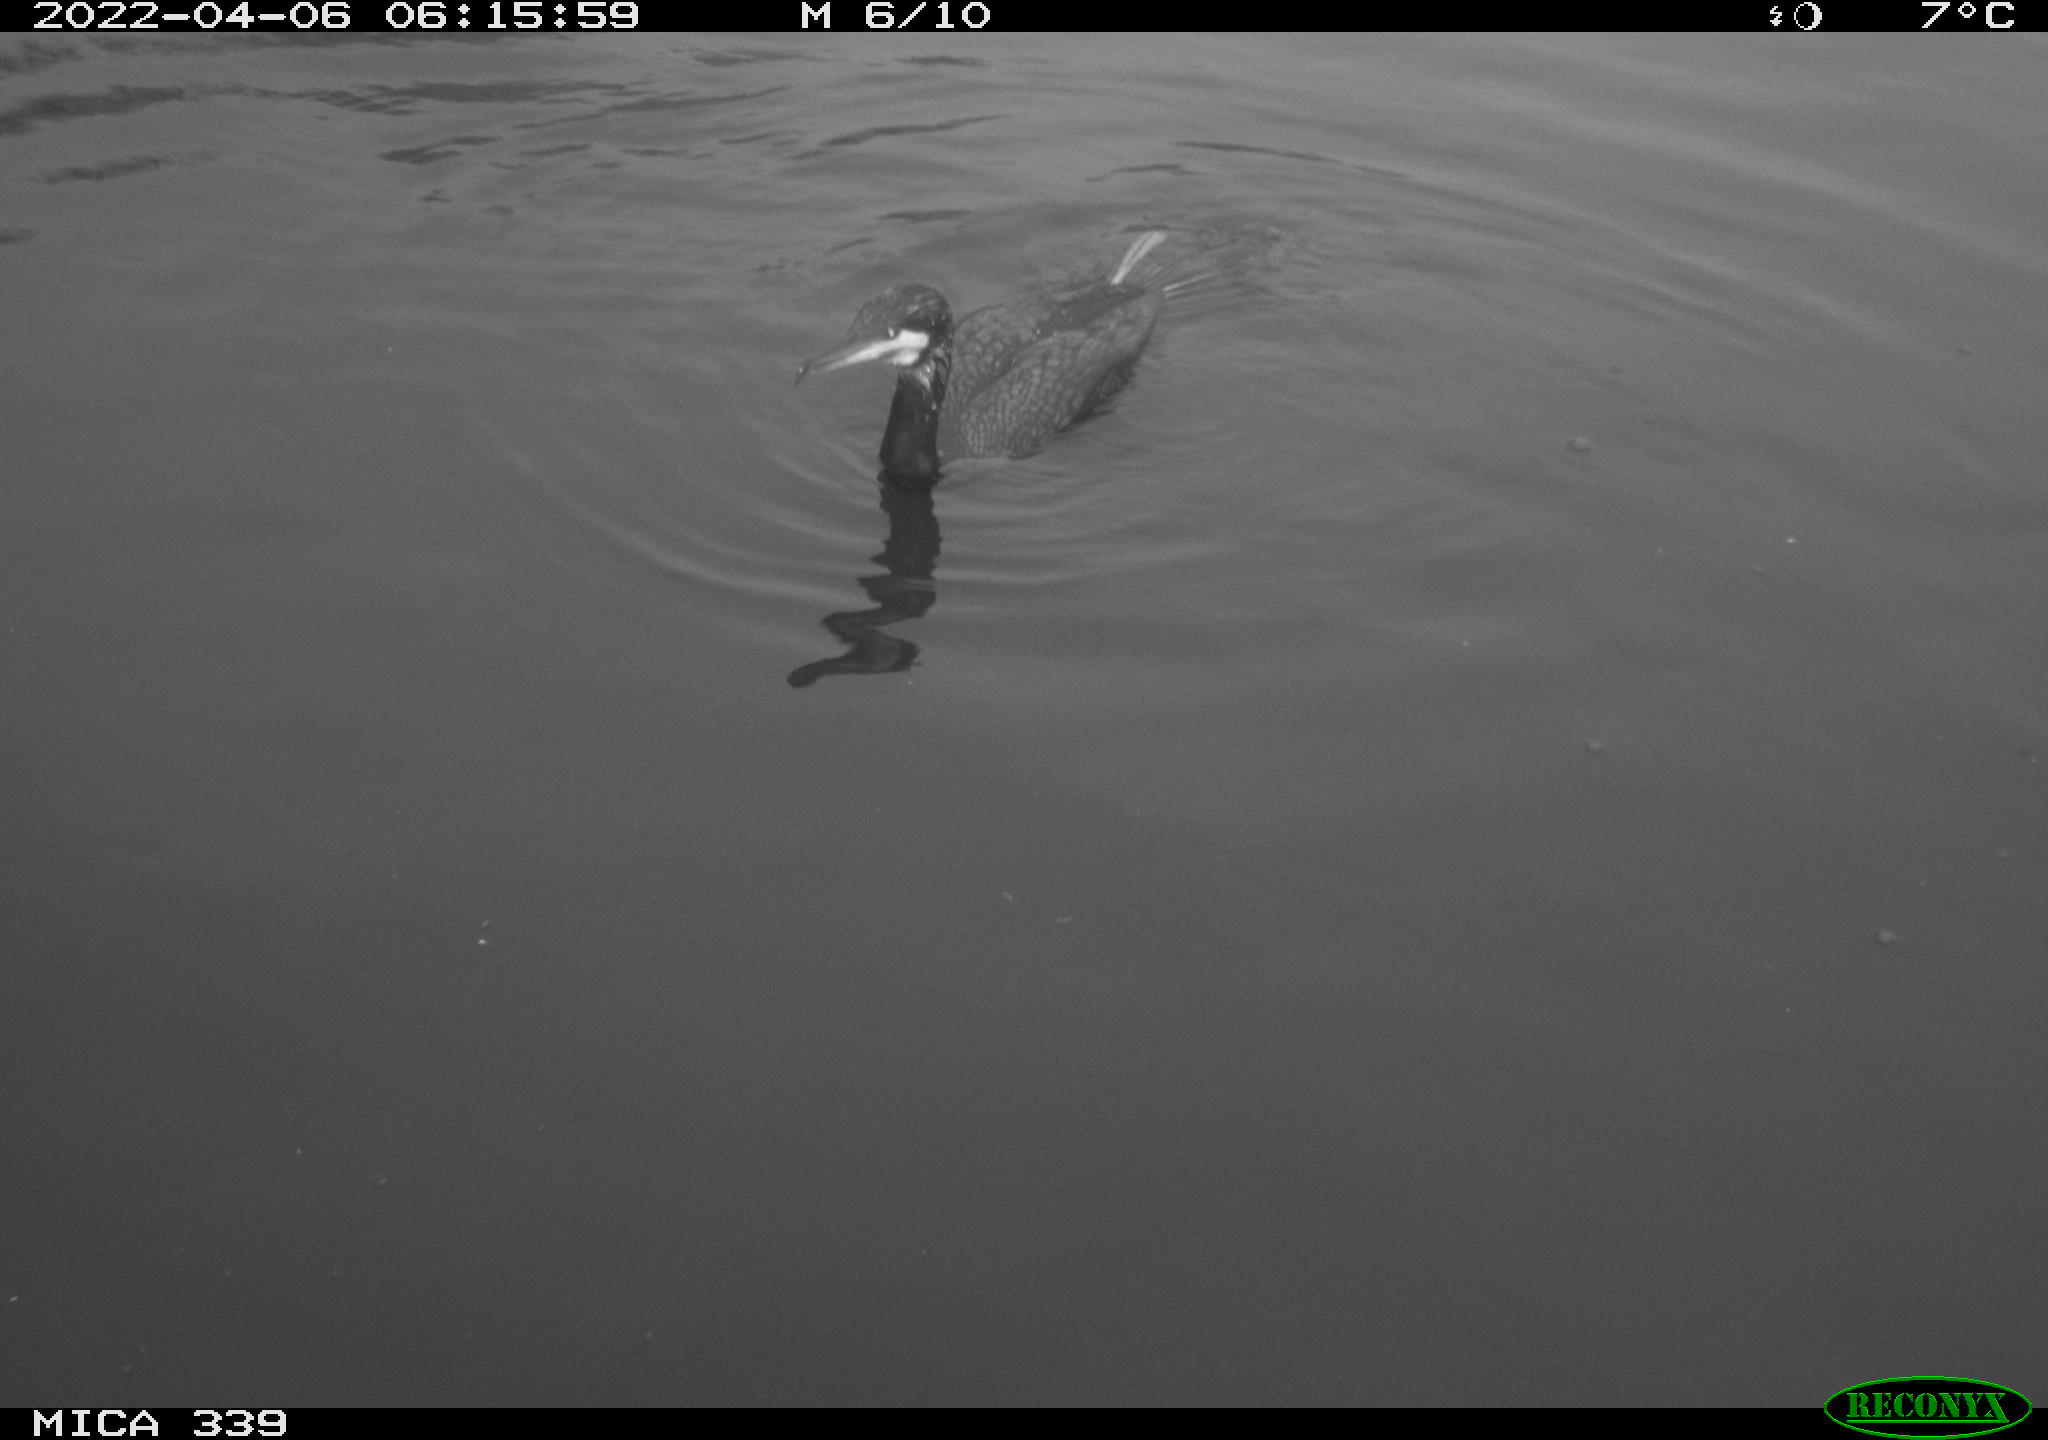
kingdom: Animalia
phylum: Chordata
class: Aves
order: Suliformes
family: Phalacrocoracidae
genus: Phalacrocorax
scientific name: Phalacrocorax carbo
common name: Great cormorant
